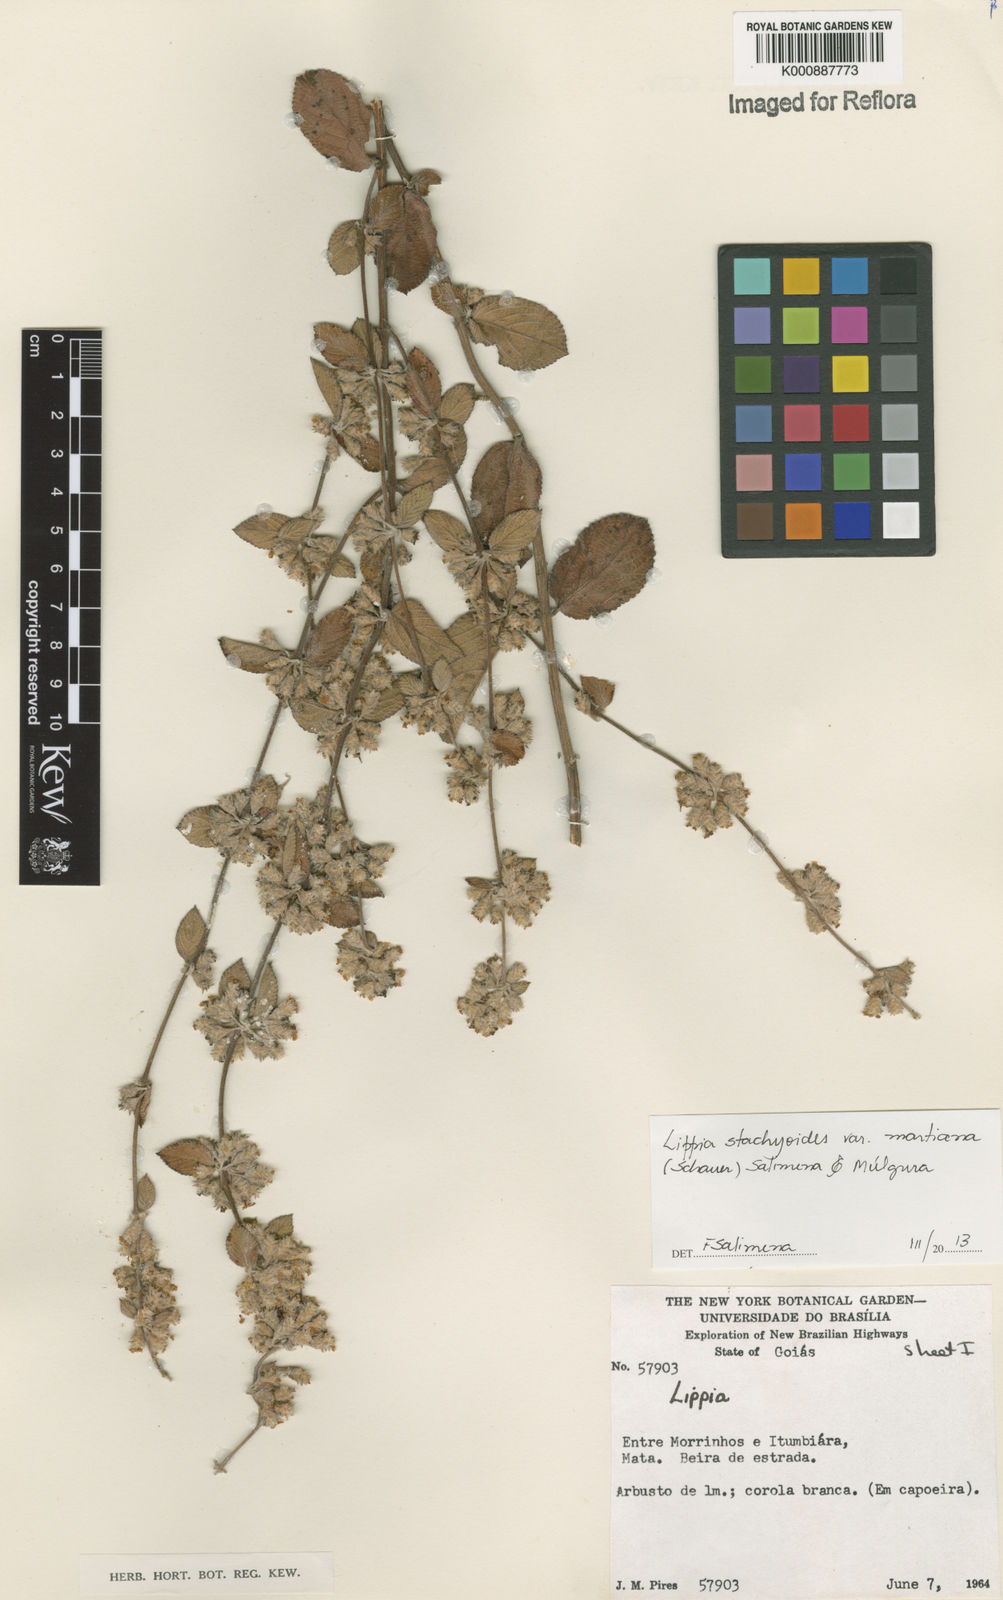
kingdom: Plantae
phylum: Tracheophyta
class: Magnoliopsida
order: Lamiales
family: Verbenaceae
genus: Lippia
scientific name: Lippia stachyoides
